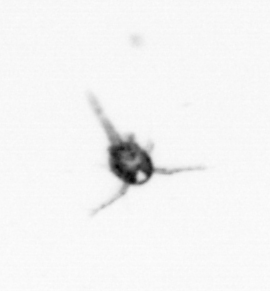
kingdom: Animalia
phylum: Arthropoda
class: Copepoda
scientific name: Copepoda
